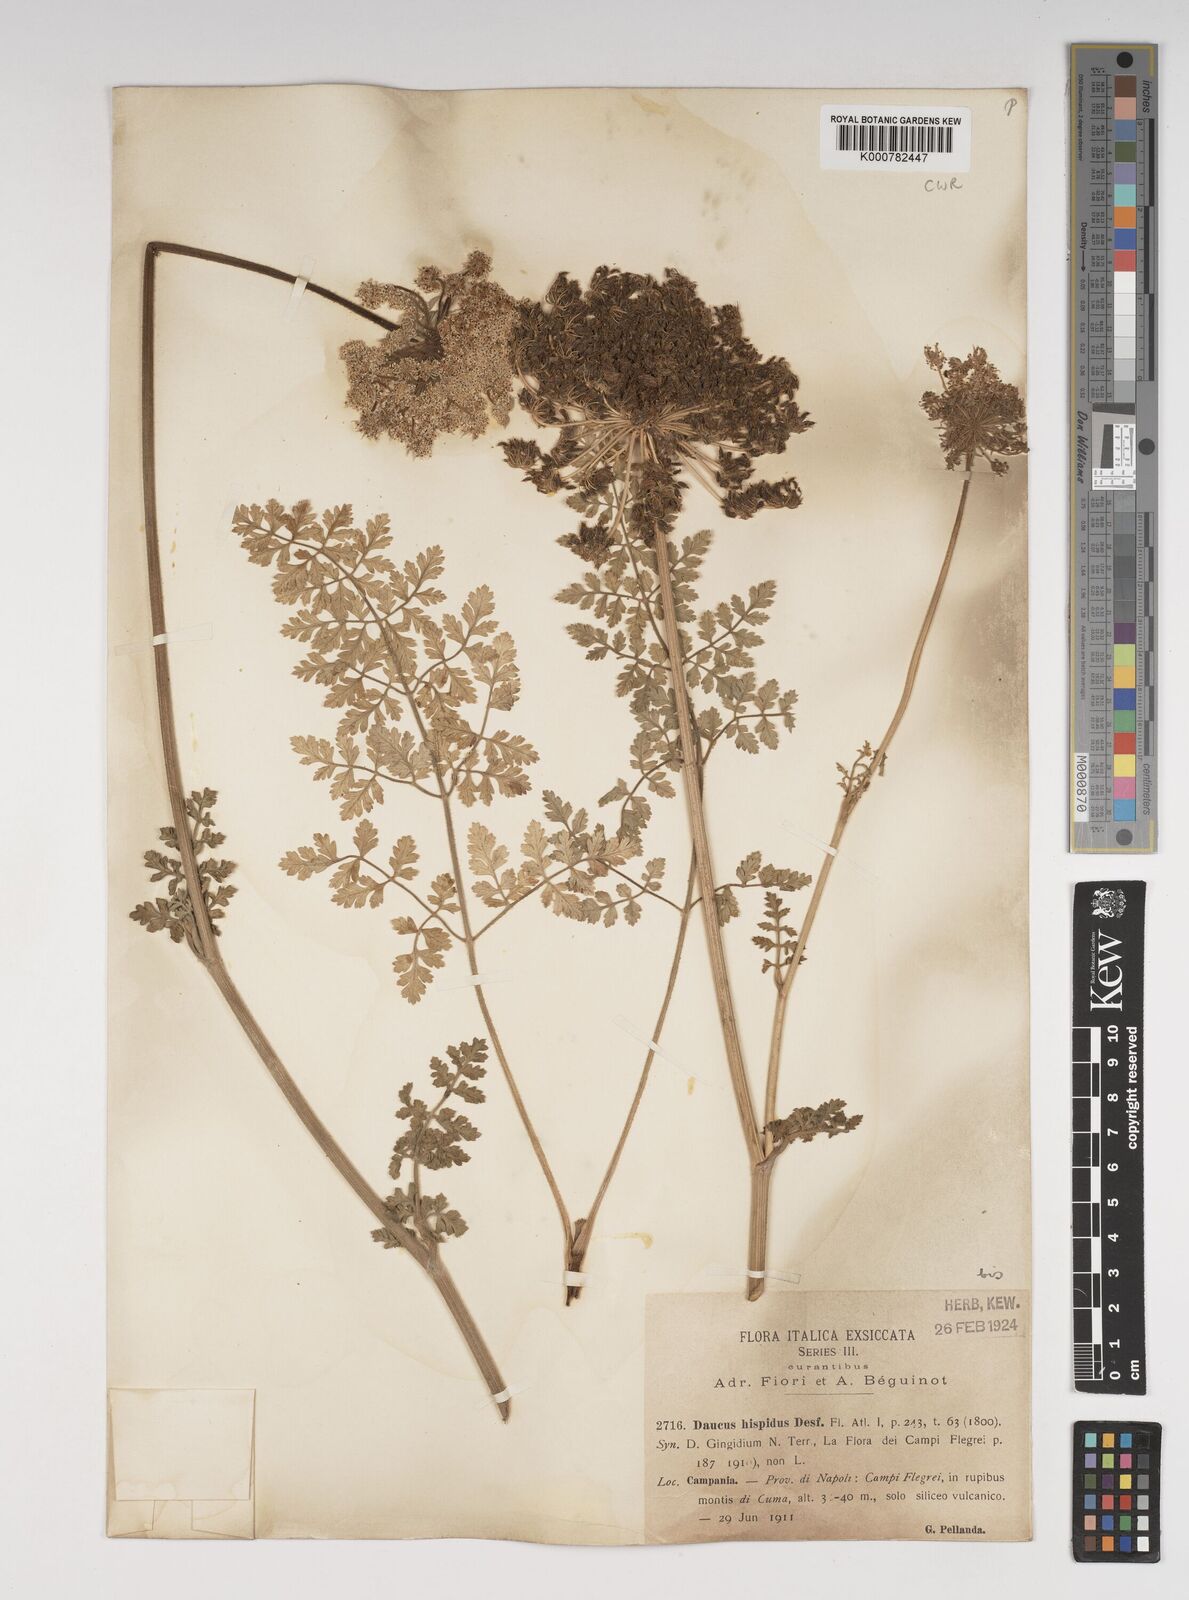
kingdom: Plantae
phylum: Tracheophyta
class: Magnoliopsida
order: Apiales
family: Apiaceae
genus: Daucus
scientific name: Daucus carota
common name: Wild carrot
